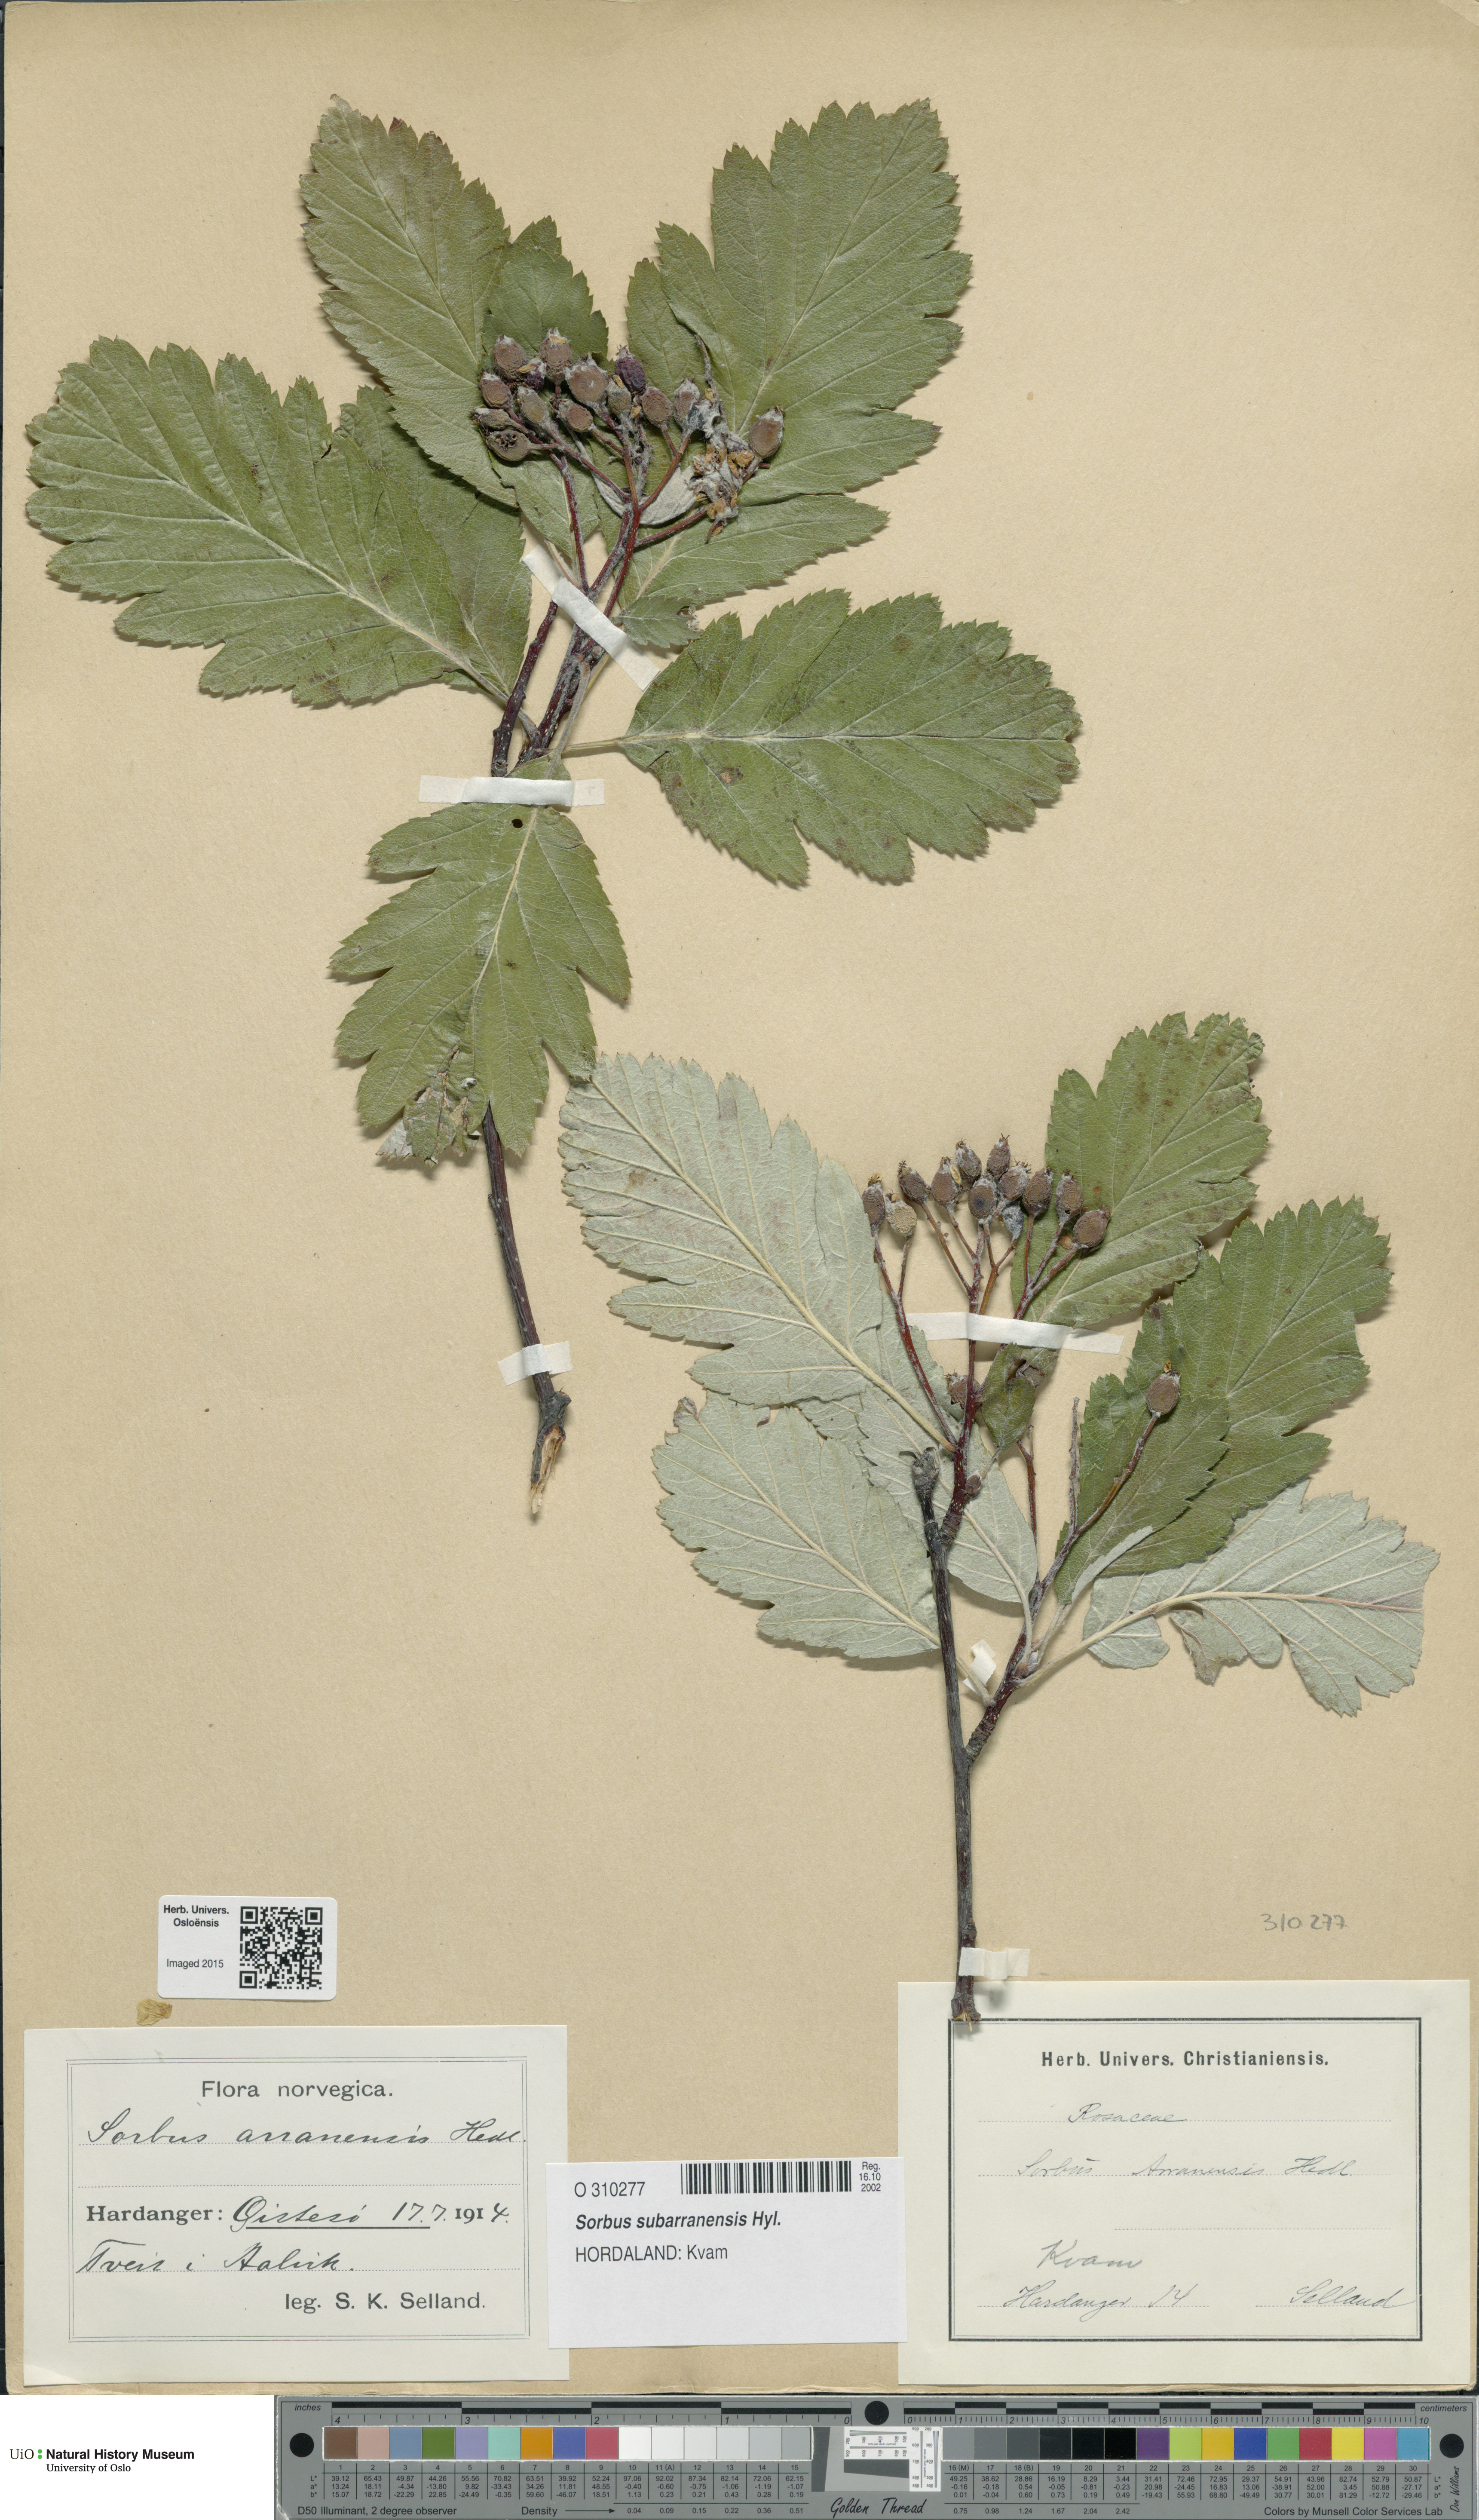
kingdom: Plantae
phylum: Tracheophyta
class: Magnoliopsida
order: Rosales
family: Rosaceae
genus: Hedlundia
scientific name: Hedlundia arranensis
